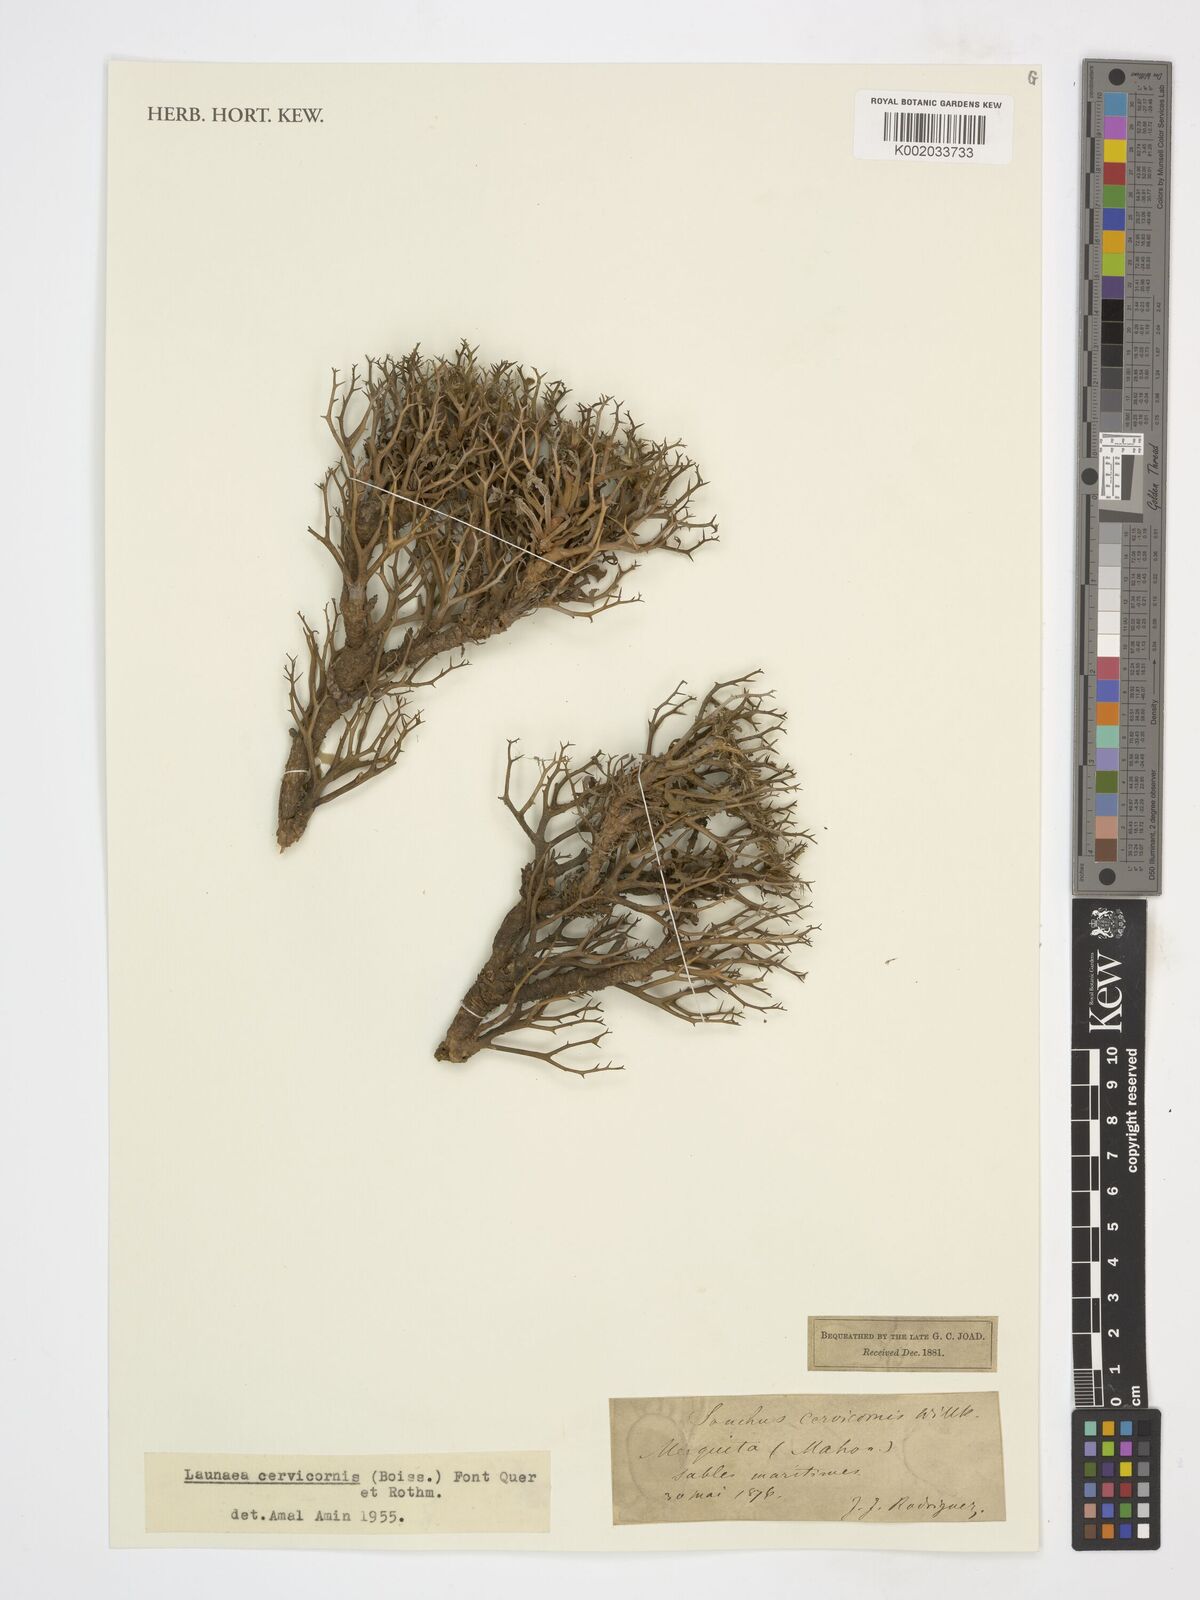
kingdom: Plantae
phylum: Tracheophyta
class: Magnoliopsida
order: Asterales
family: Asteraceae
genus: Launaea
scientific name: Launaea cervicornis
